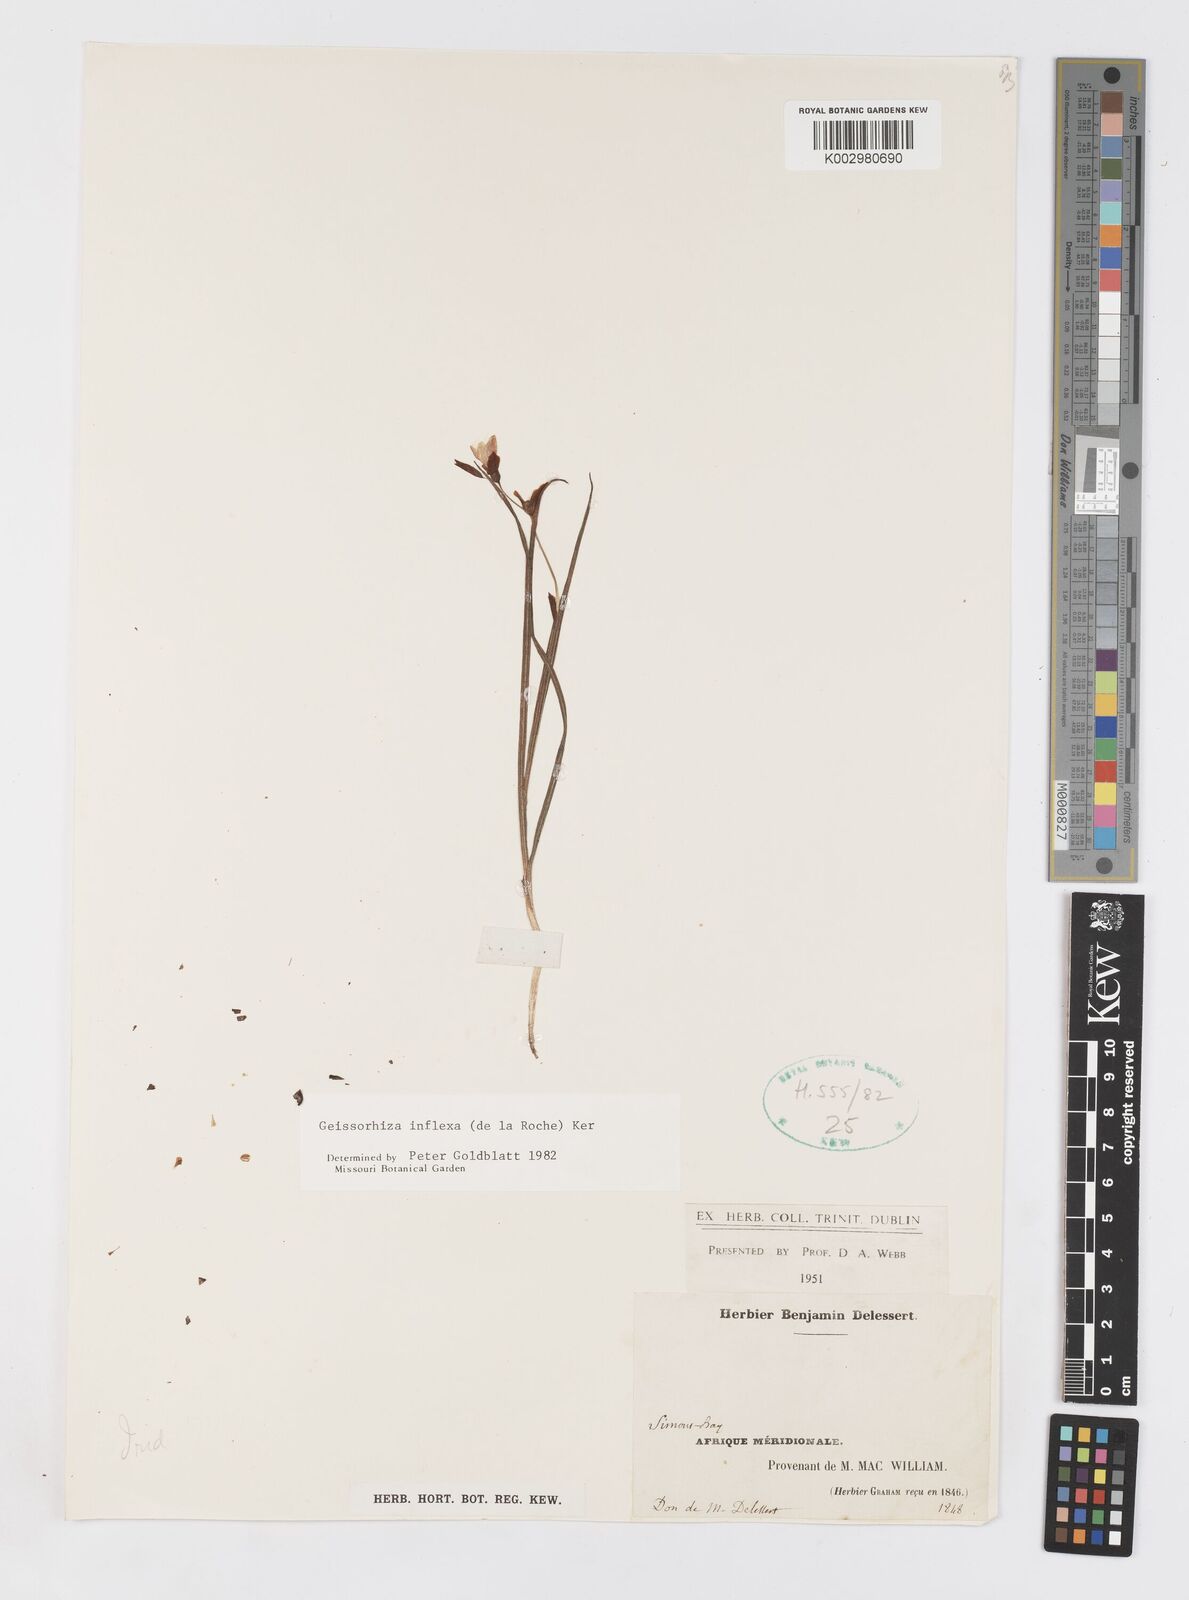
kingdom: Plantae
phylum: Tracheophyta
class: Liliopsida
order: Asparagales
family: Iridaceae
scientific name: Iridaceae
